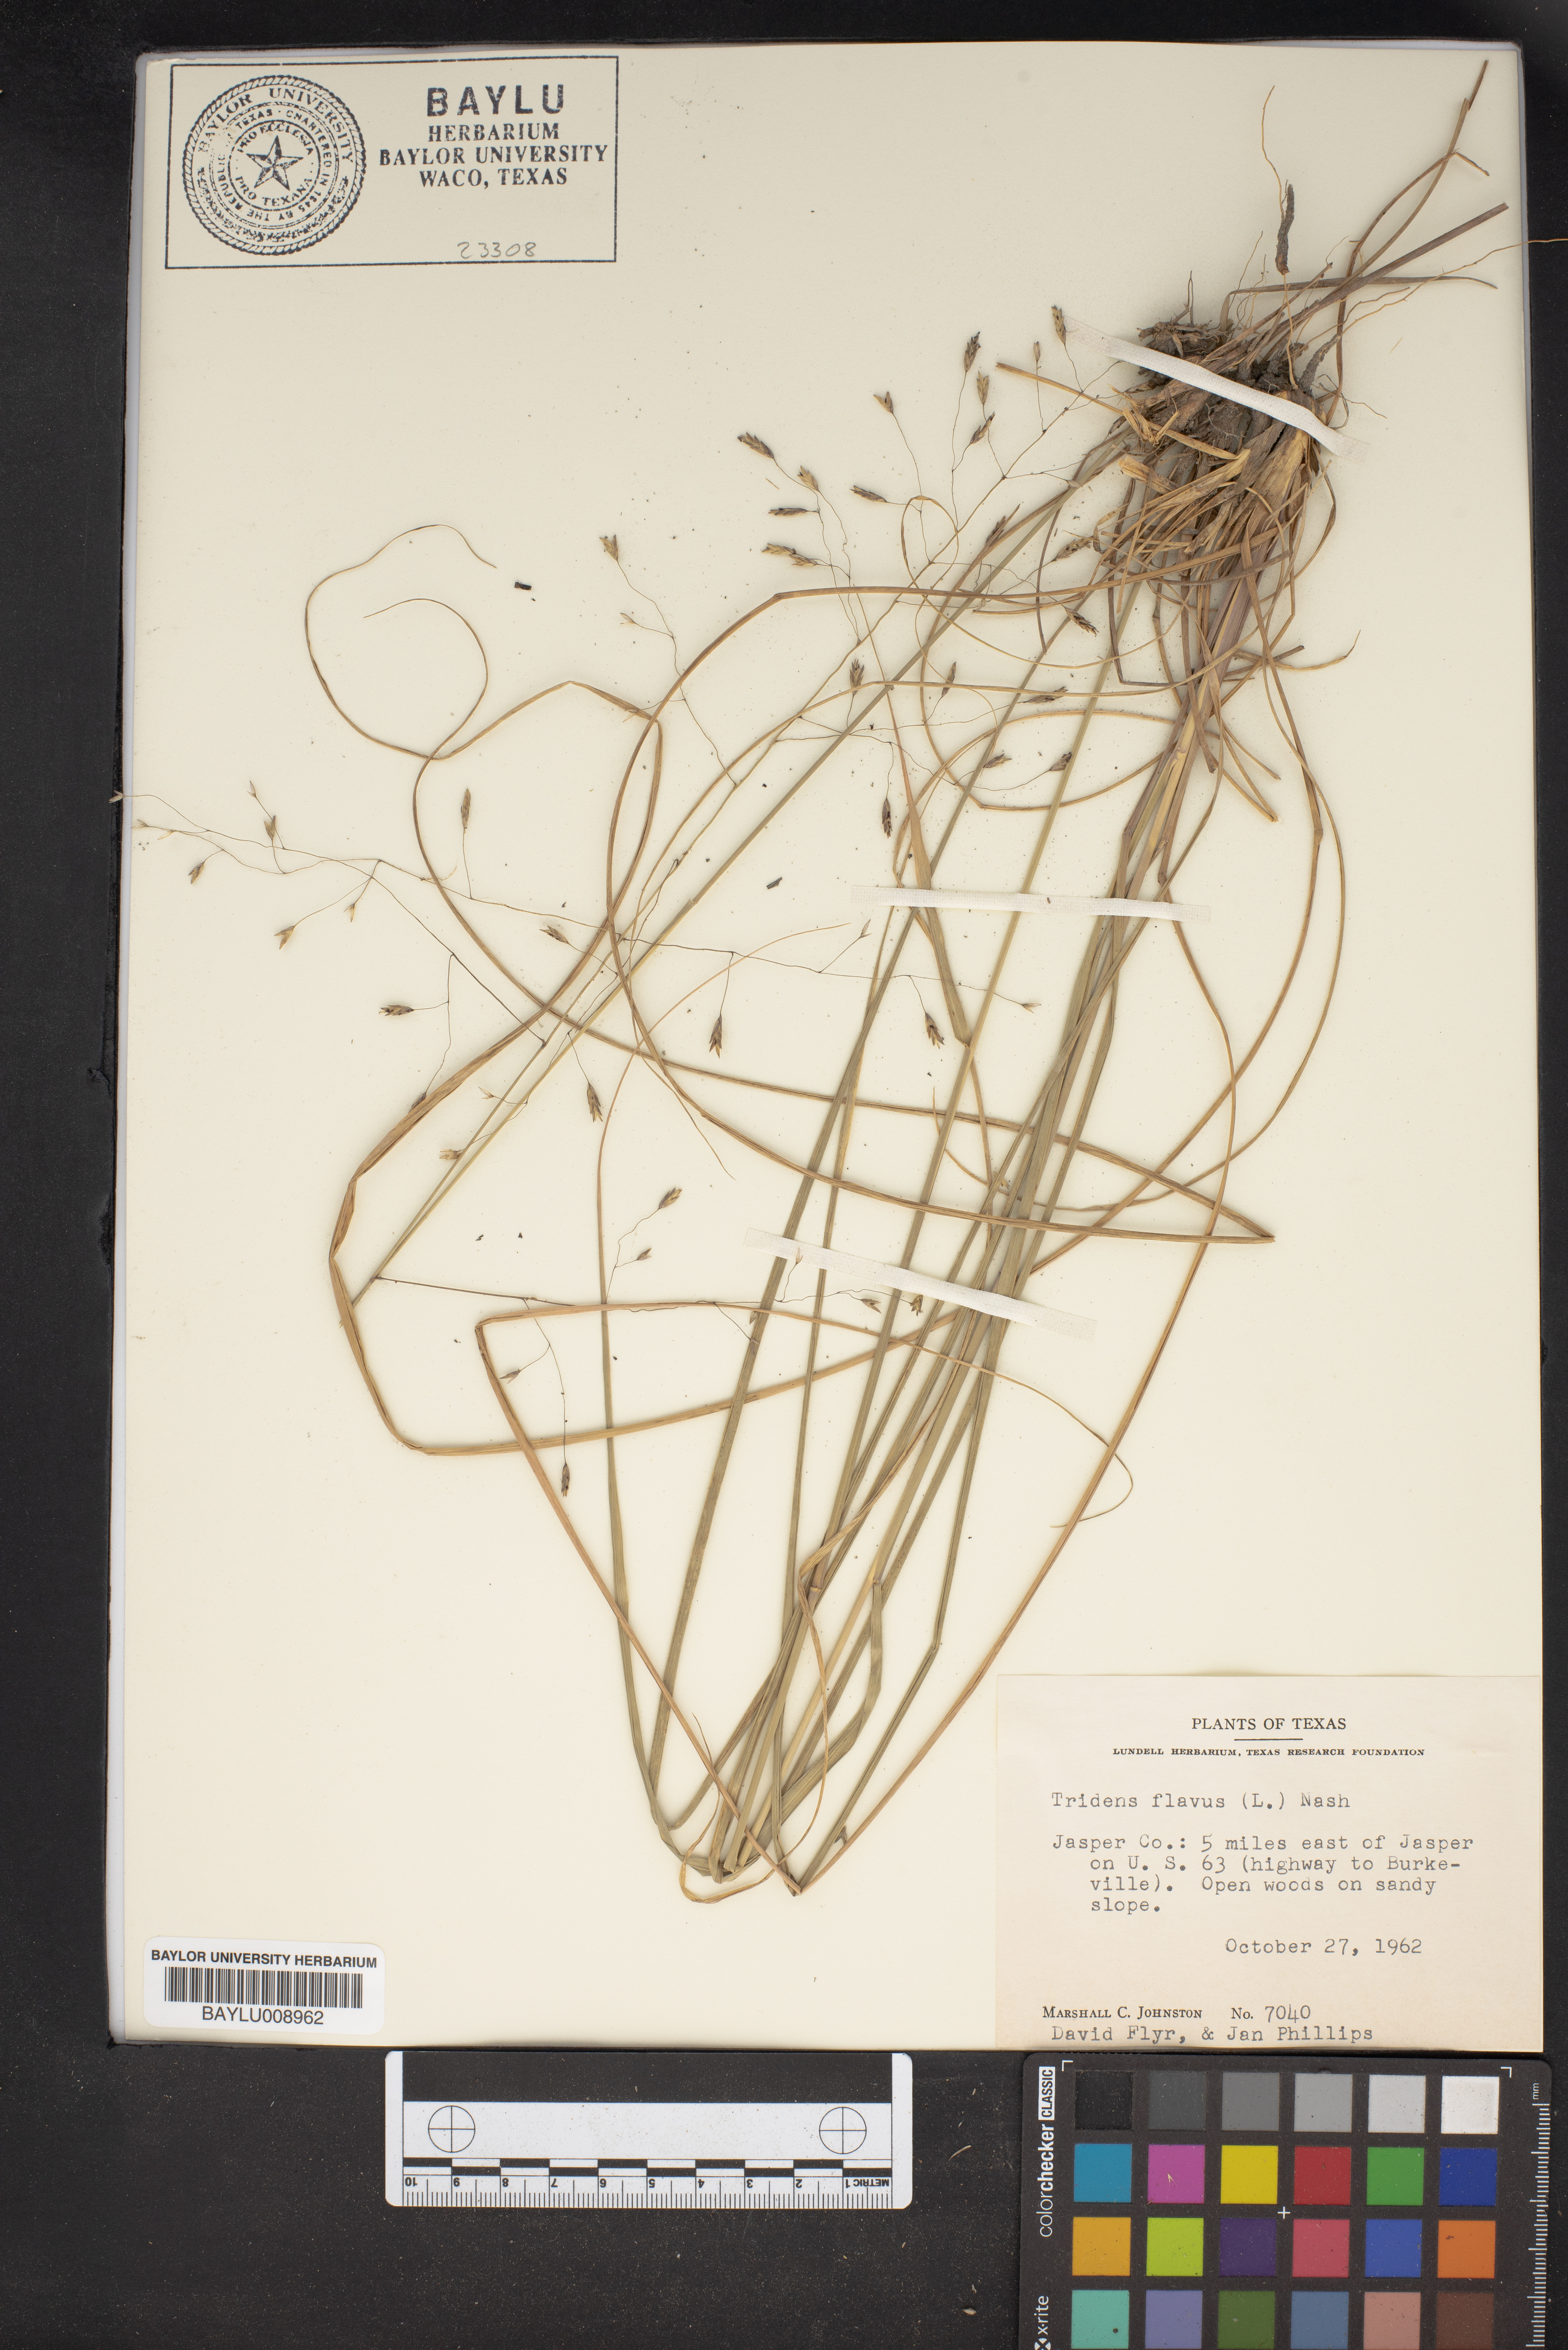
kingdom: Plantae
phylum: Tracheophyta
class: Liliopsida
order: Poales
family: Poaceae
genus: Tridens
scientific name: Tridens flavus
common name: Purpletop
